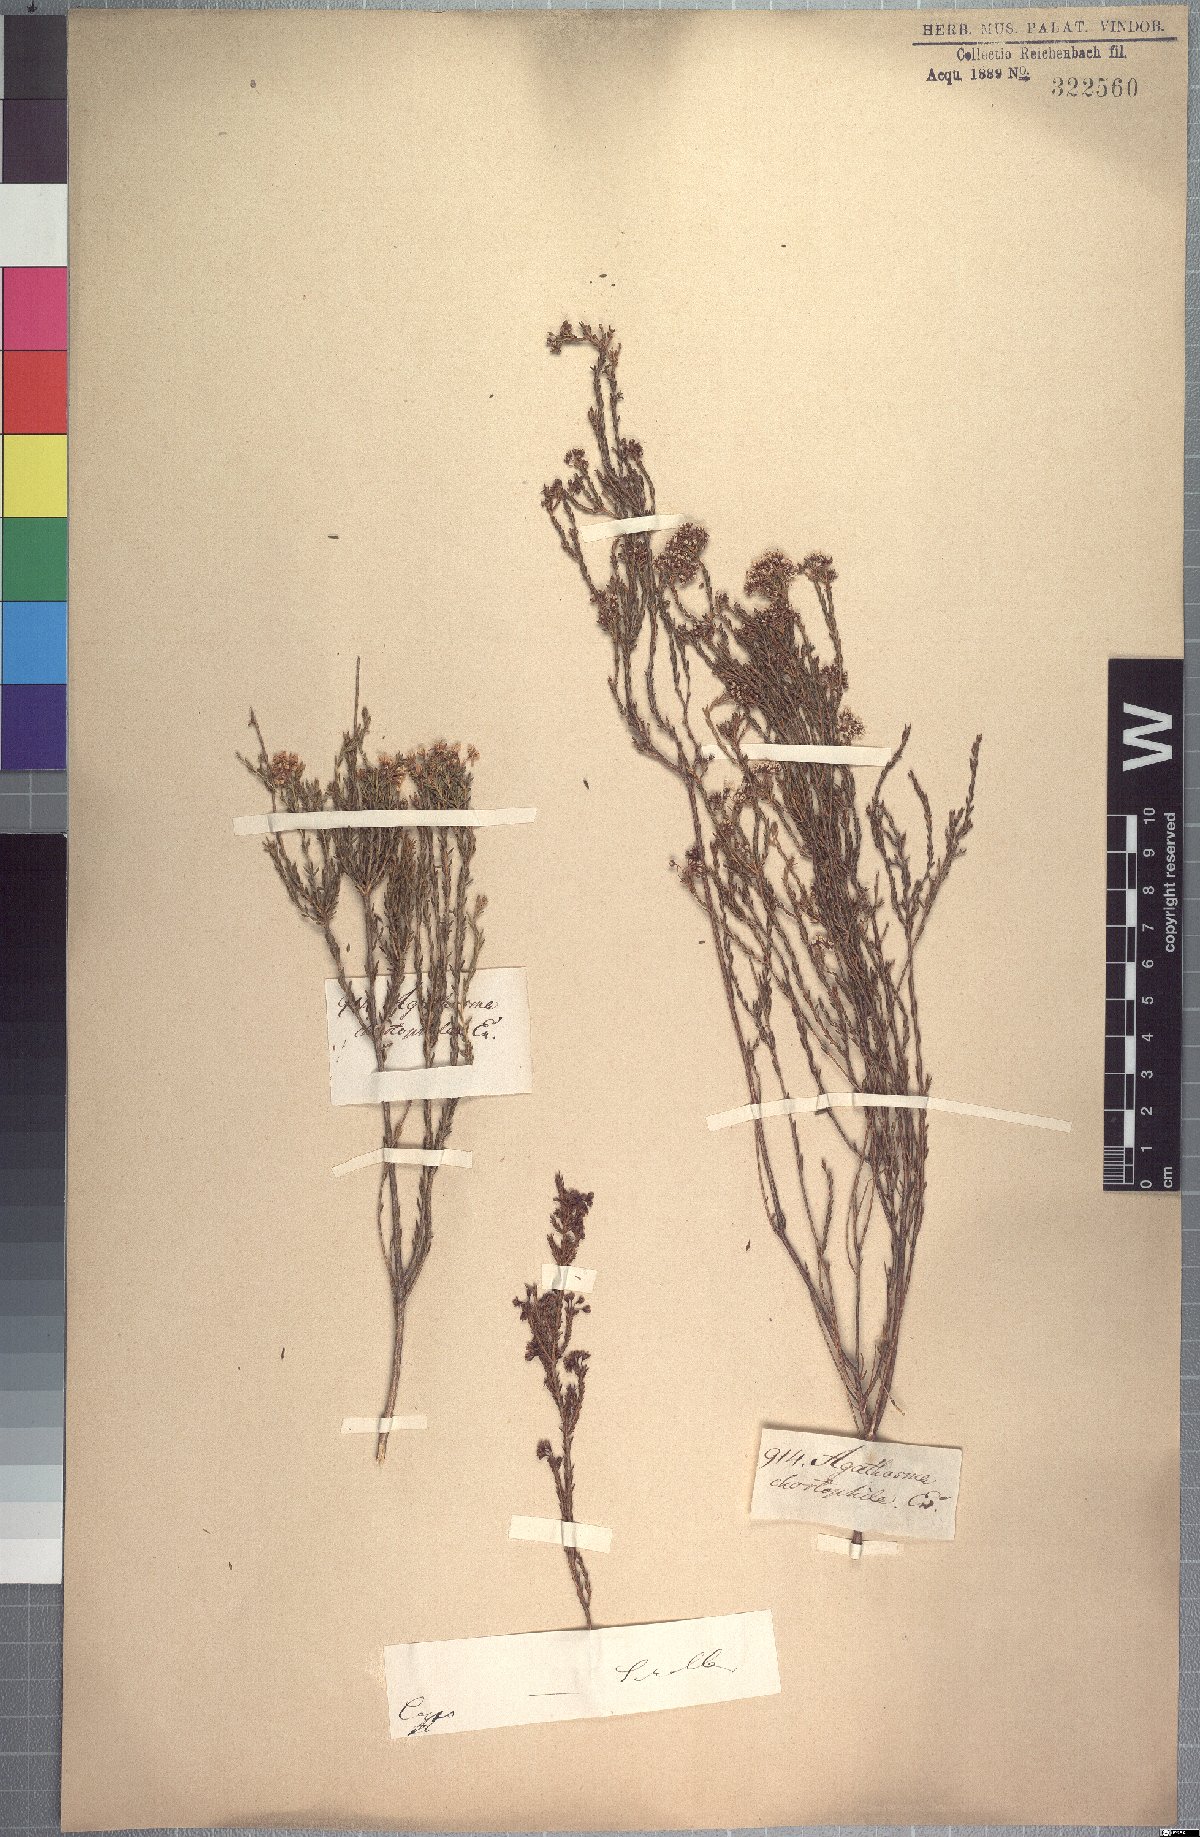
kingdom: Plantae
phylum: Tracheophyta
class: Magnoliopsida
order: Sapindales
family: Rutaceae
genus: Agathosma
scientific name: Agathosma capensis
